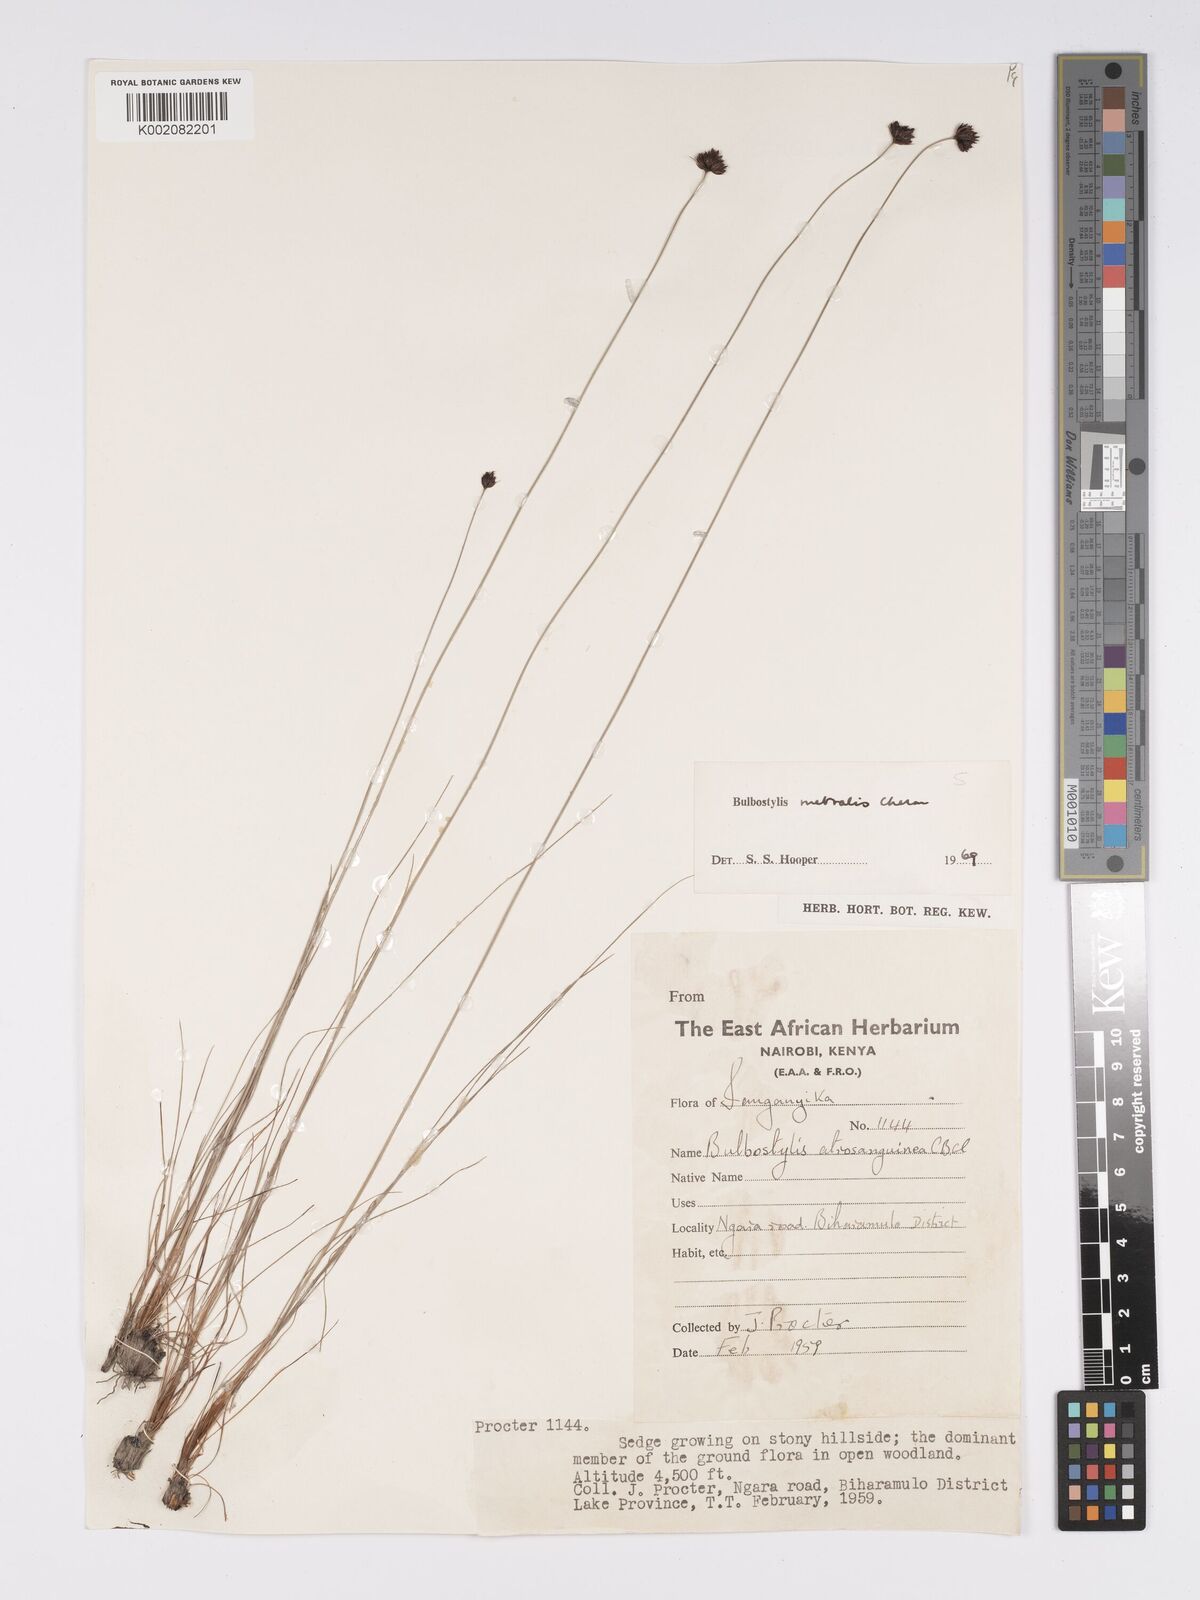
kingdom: Plantae
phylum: Tracheophyta
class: Liliopsida
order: Poales
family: Cyperaceae
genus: Bulbostylis
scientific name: Bulbostylis filamentosa
